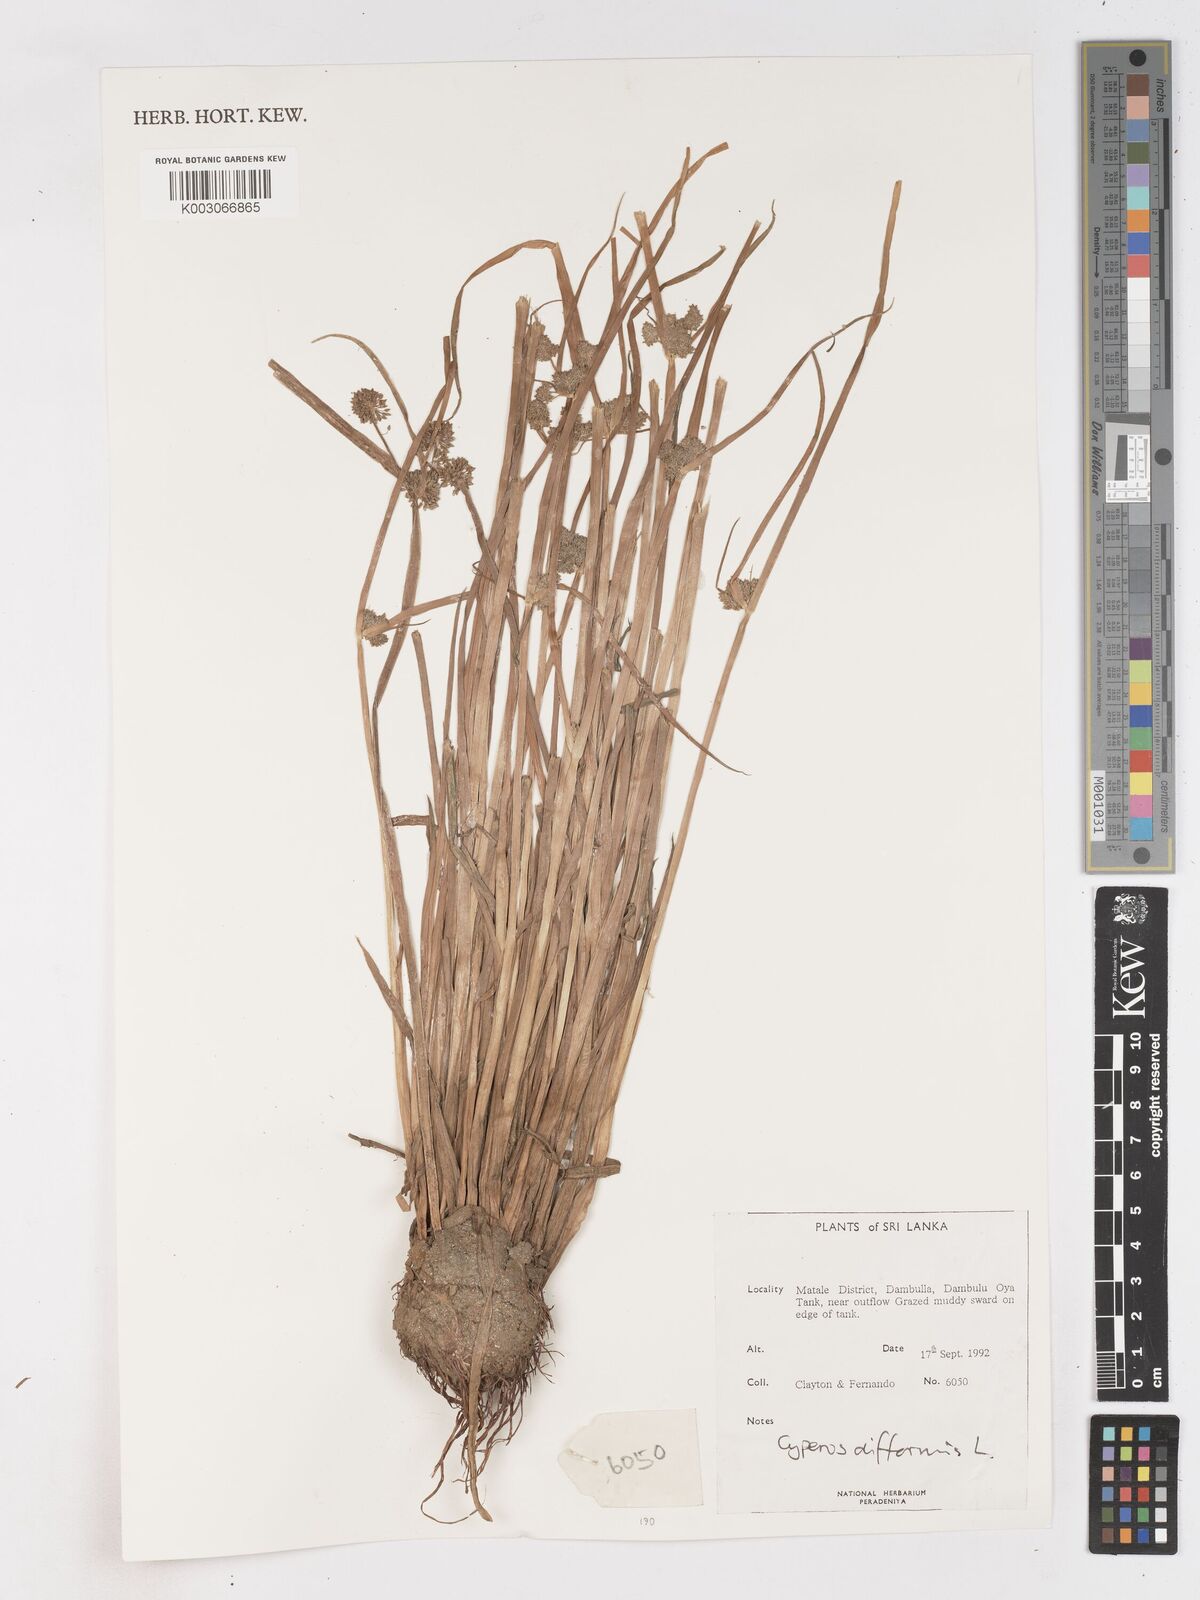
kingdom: Plantae
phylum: Tracheophyta
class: Liliopsida
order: Poales
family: Cyperaceae
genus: Cyperus
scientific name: Cyperus difformis
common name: Variable flatsedge
